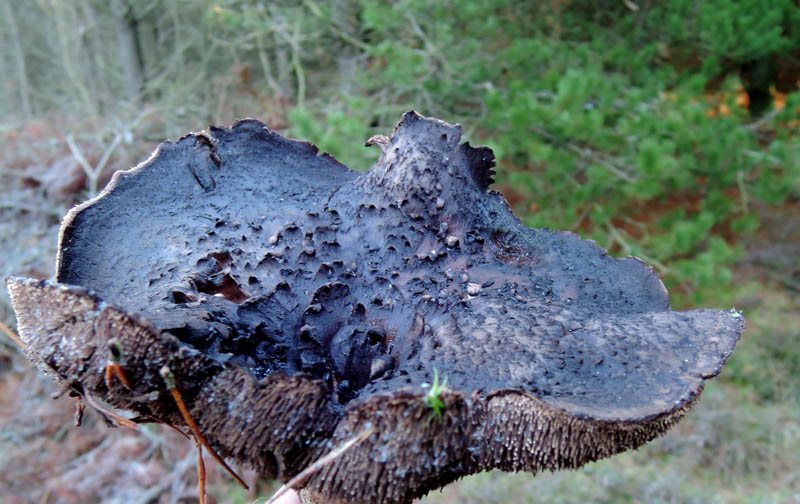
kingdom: Fungi
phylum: Basidiomycota
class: Agaricomycetes
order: Thelephorales
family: Bankeraceae
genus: Sarcodon
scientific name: Sarcodon squamosus
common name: småskællet kødpigsvamp
